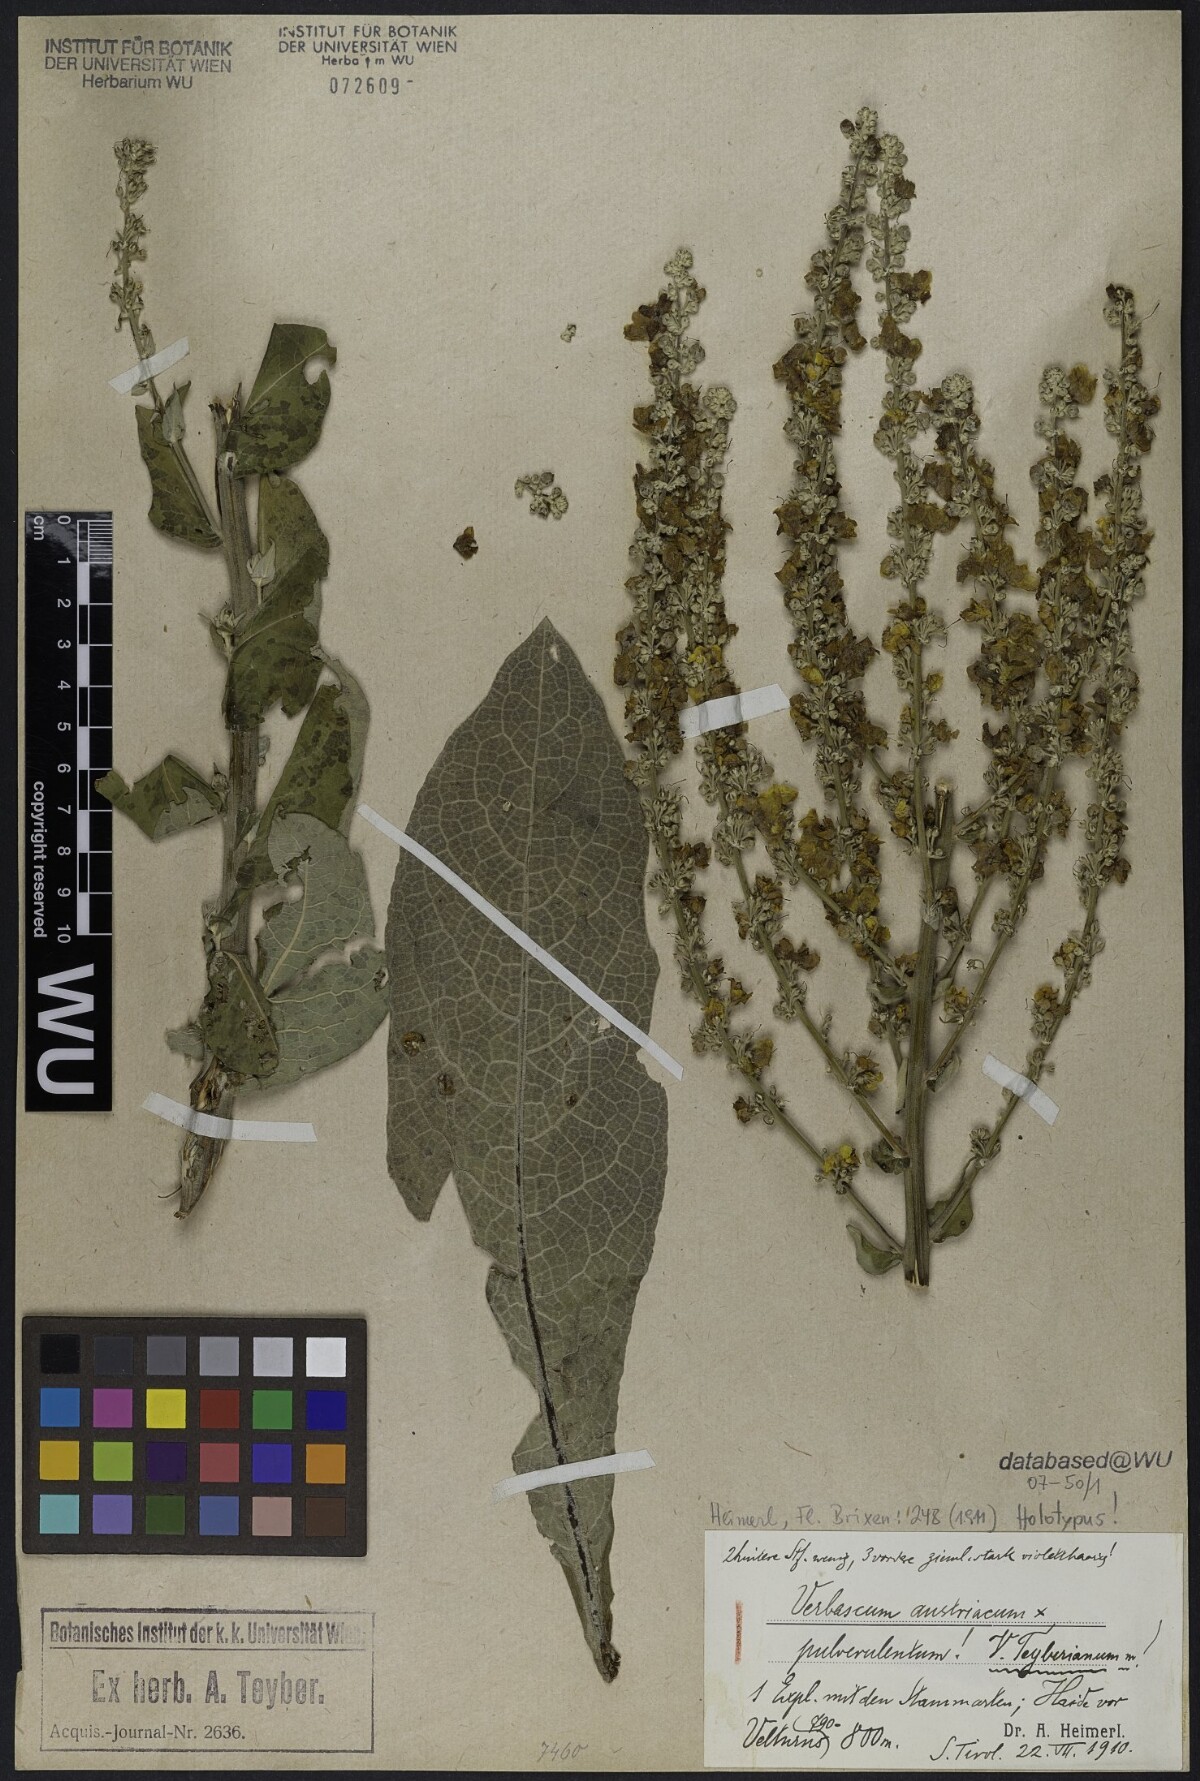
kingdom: Plantae
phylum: Tracheophyta
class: Magnoliopsida
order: Lamiales
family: Scrophulariaceae
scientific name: Scrophulariaceae
